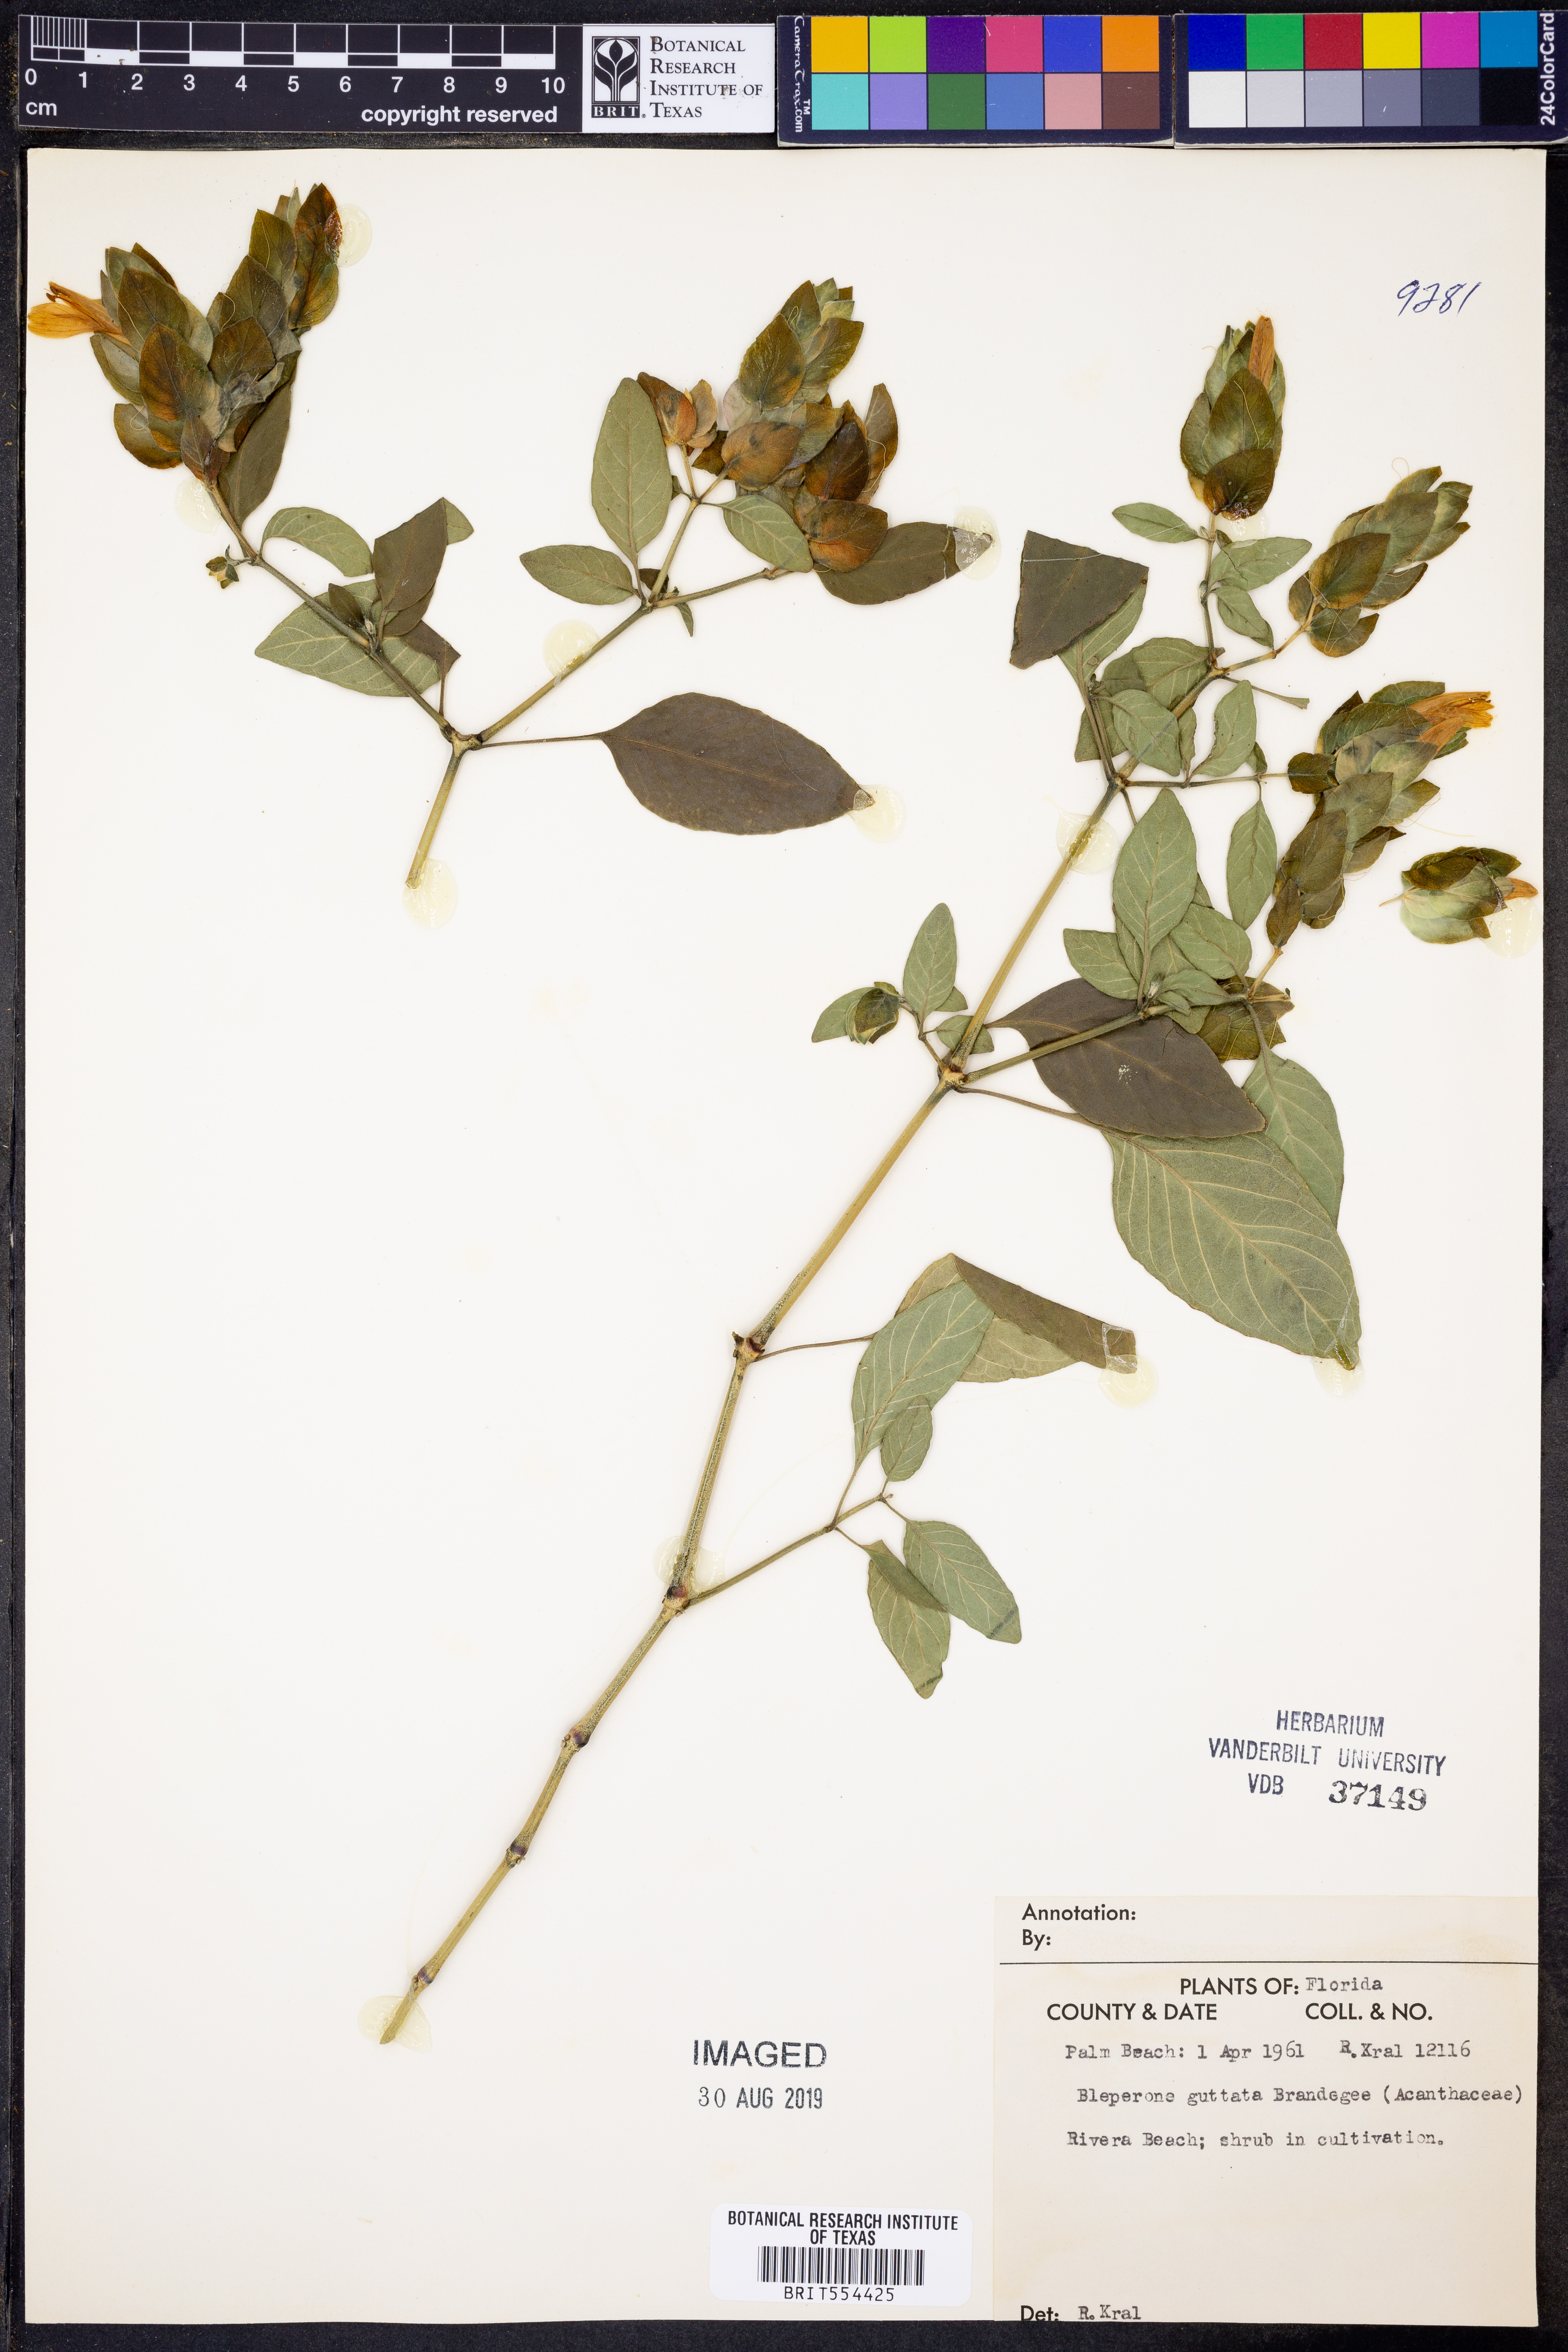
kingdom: Plantae
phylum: Tracheophyta
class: Magnoliopsida
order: Lamiales
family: Acanthaceae
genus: Justicia
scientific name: Justicia brandegeeana
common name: Shrimpplant
